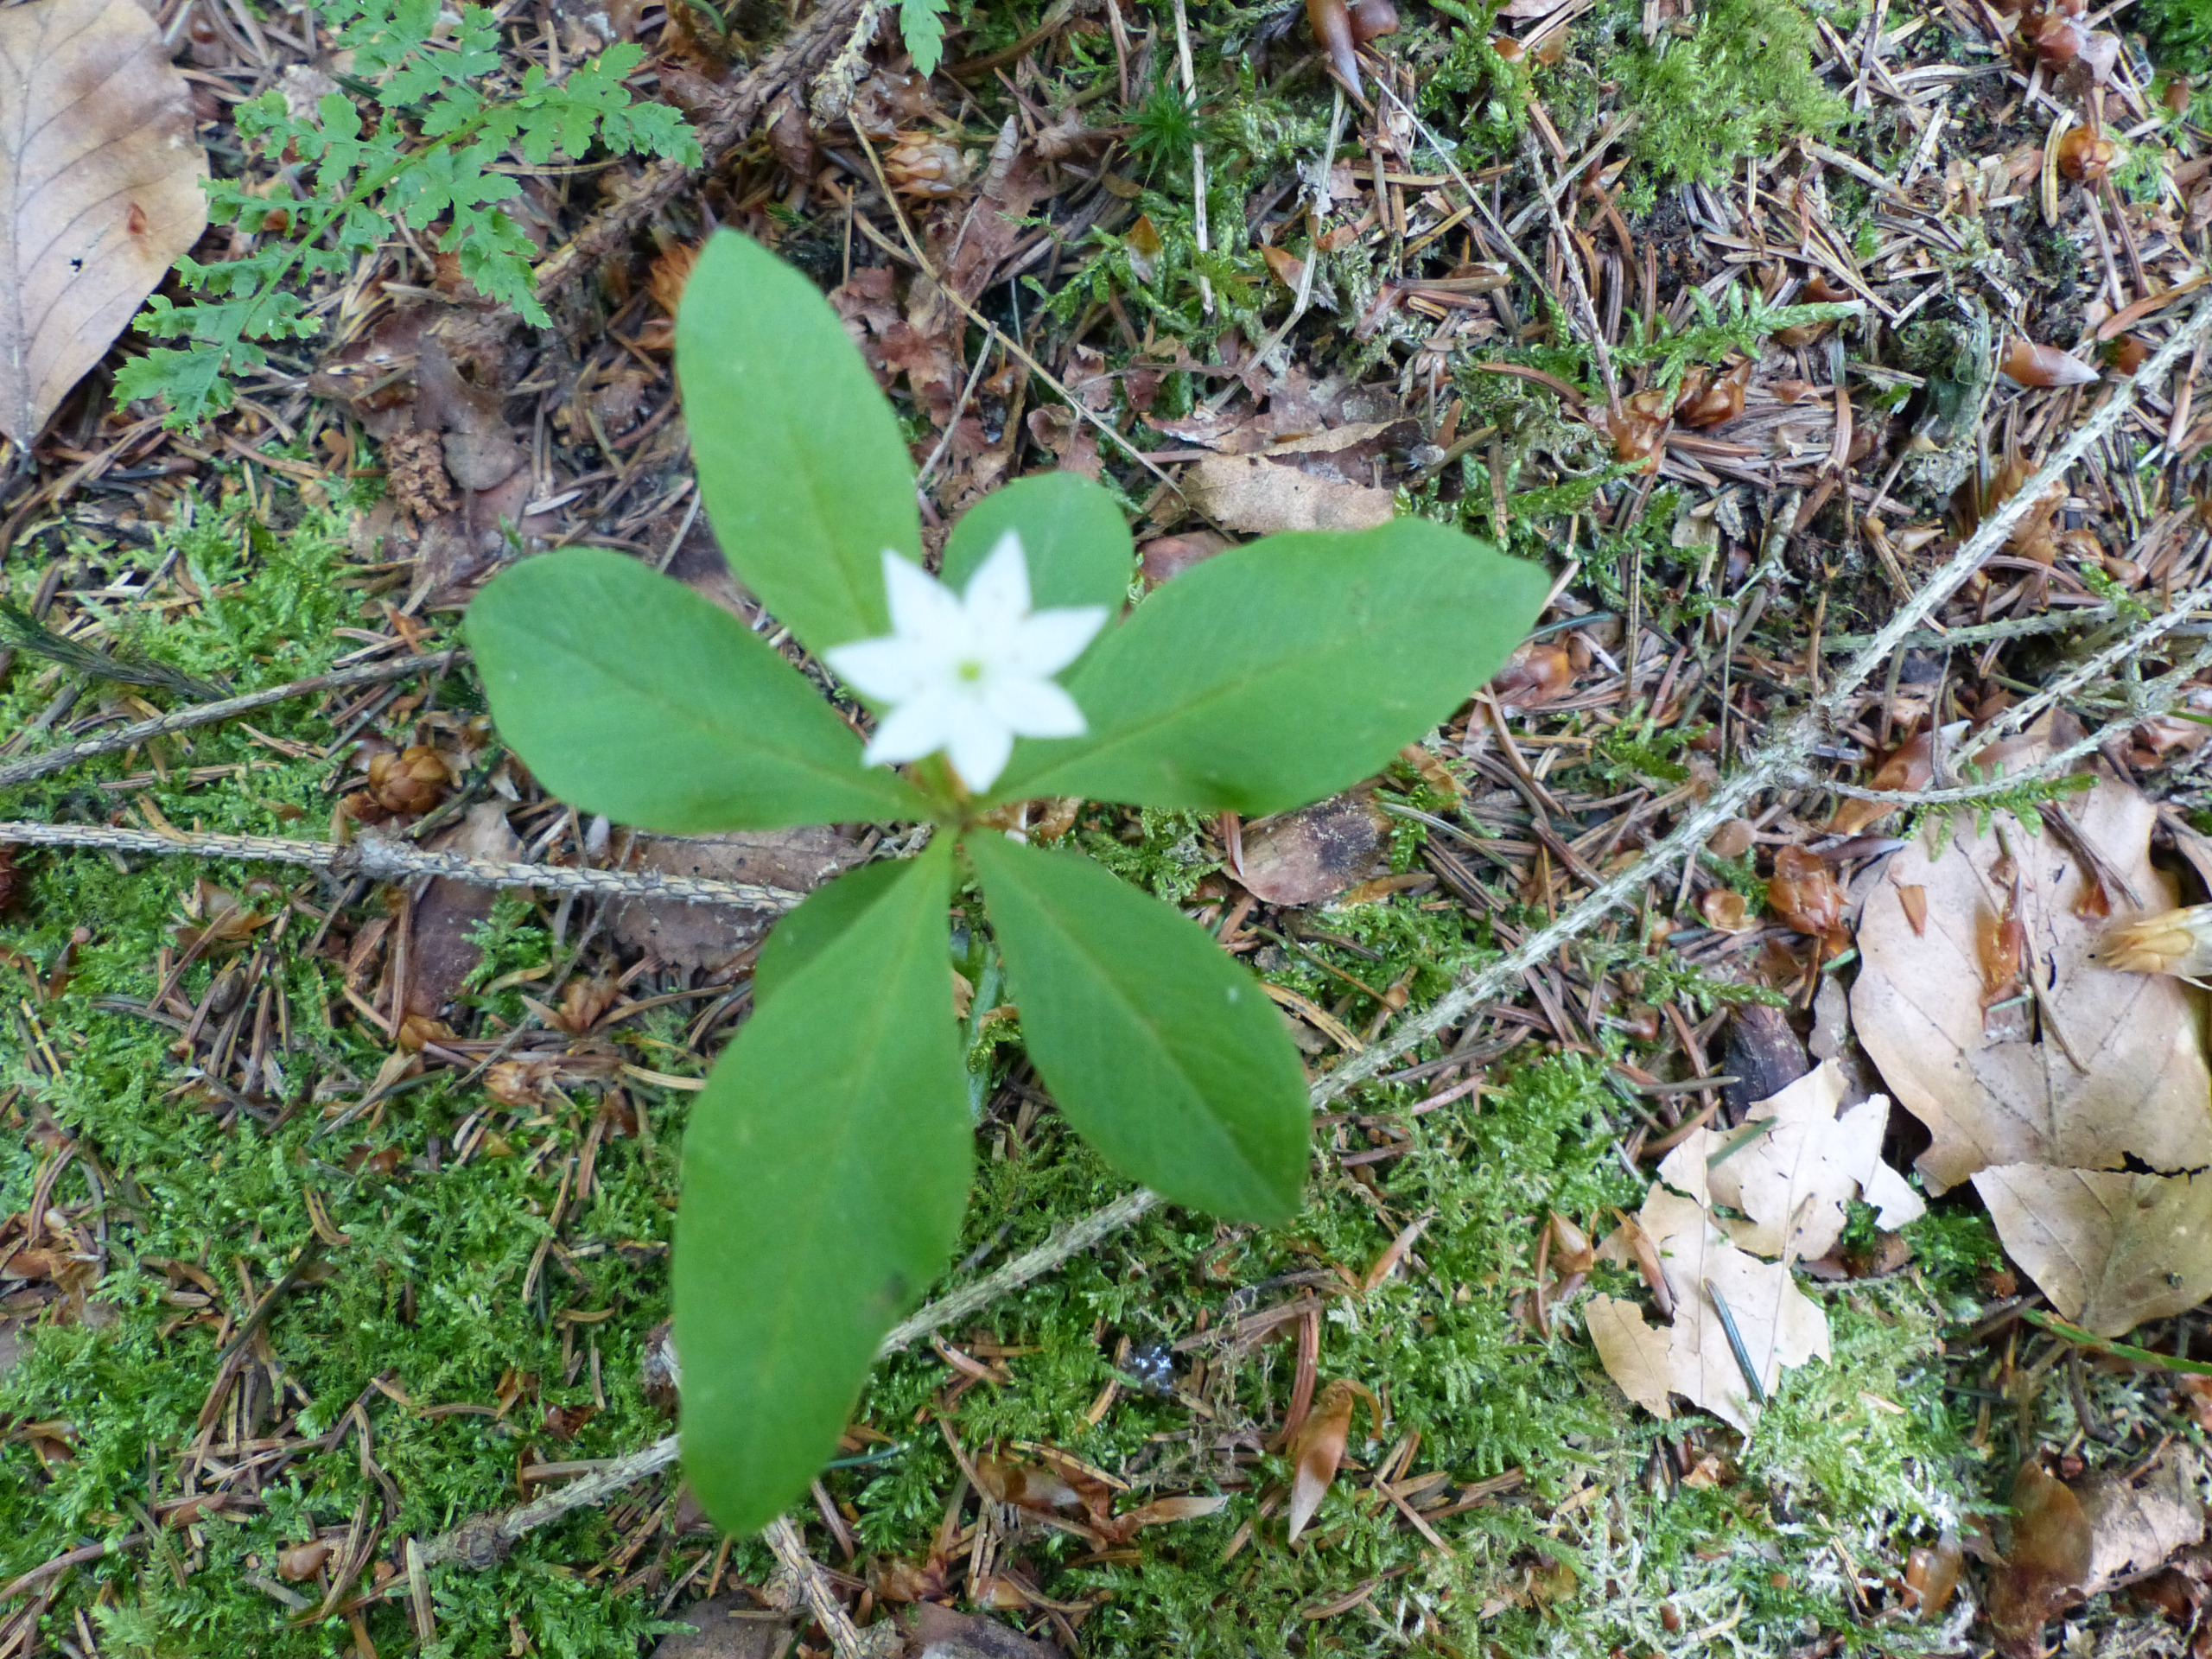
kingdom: Plantae
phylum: Tracheophyta
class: Magnoliopsida
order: Ericales
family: Primulaceae
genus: Lysimachia
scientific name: Lysimachia europaea
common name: Skovstjerne
